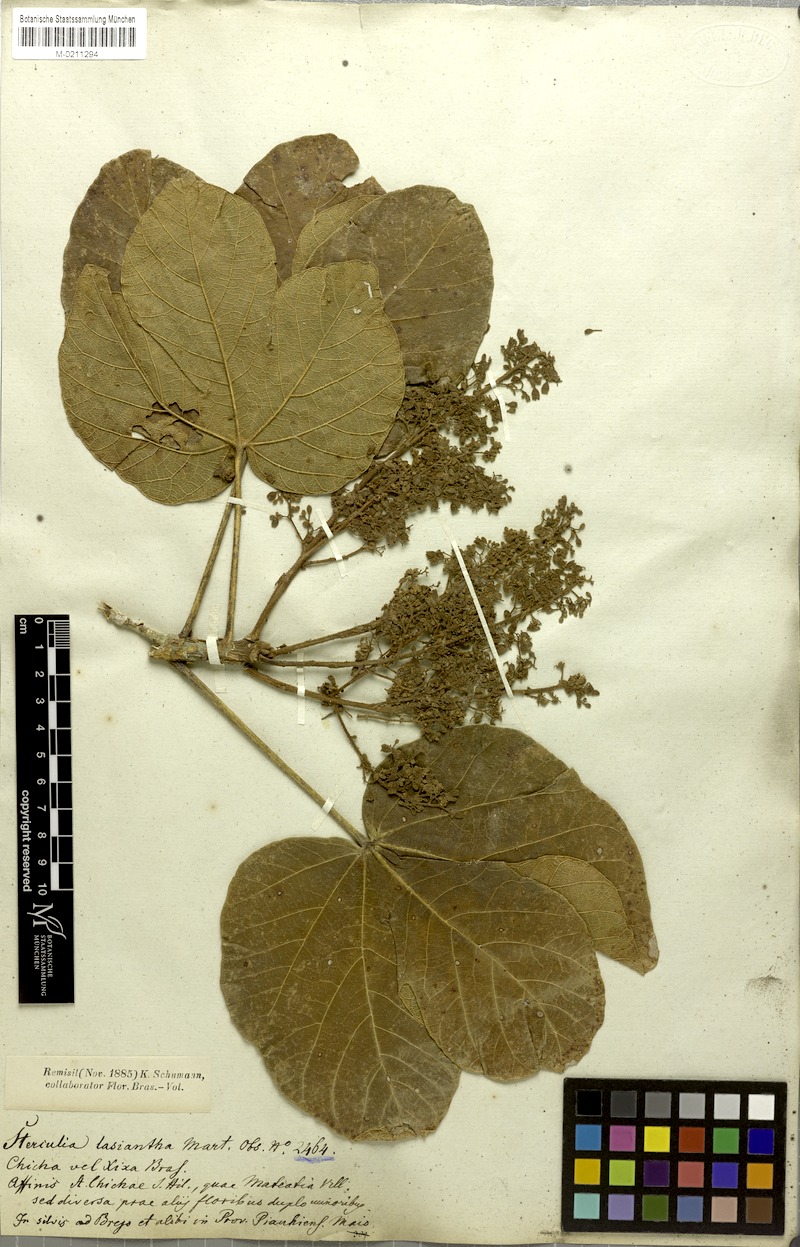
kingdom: Plantae
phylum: Tracheophyta
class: Magnoliopsida
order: Malvales
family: Malvaceae
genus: Sterculia
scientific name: Sterculia striata
